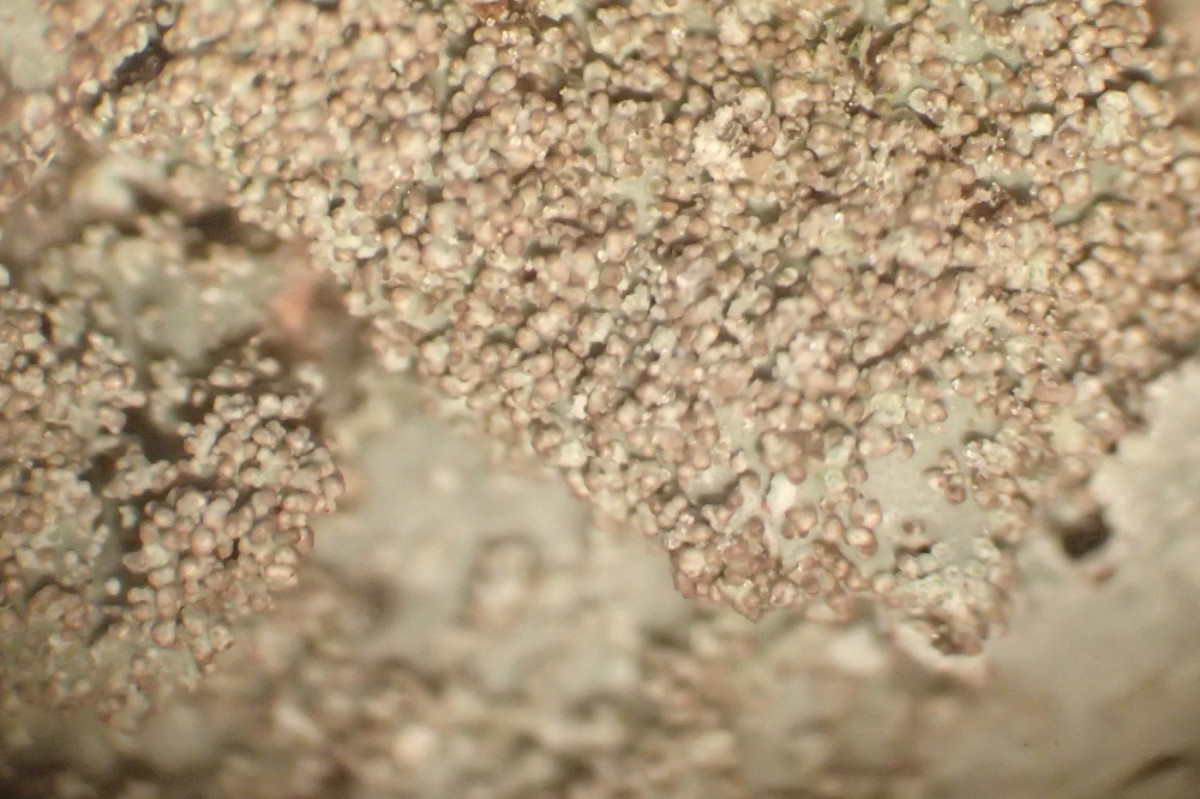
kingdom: Fungi
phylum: Ascomycota
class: Lecanoromycetes
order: Lecanorales
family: Parmeliaceae
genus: Parmelia
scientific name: Parmelia saxatilis
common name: farve-skållav
